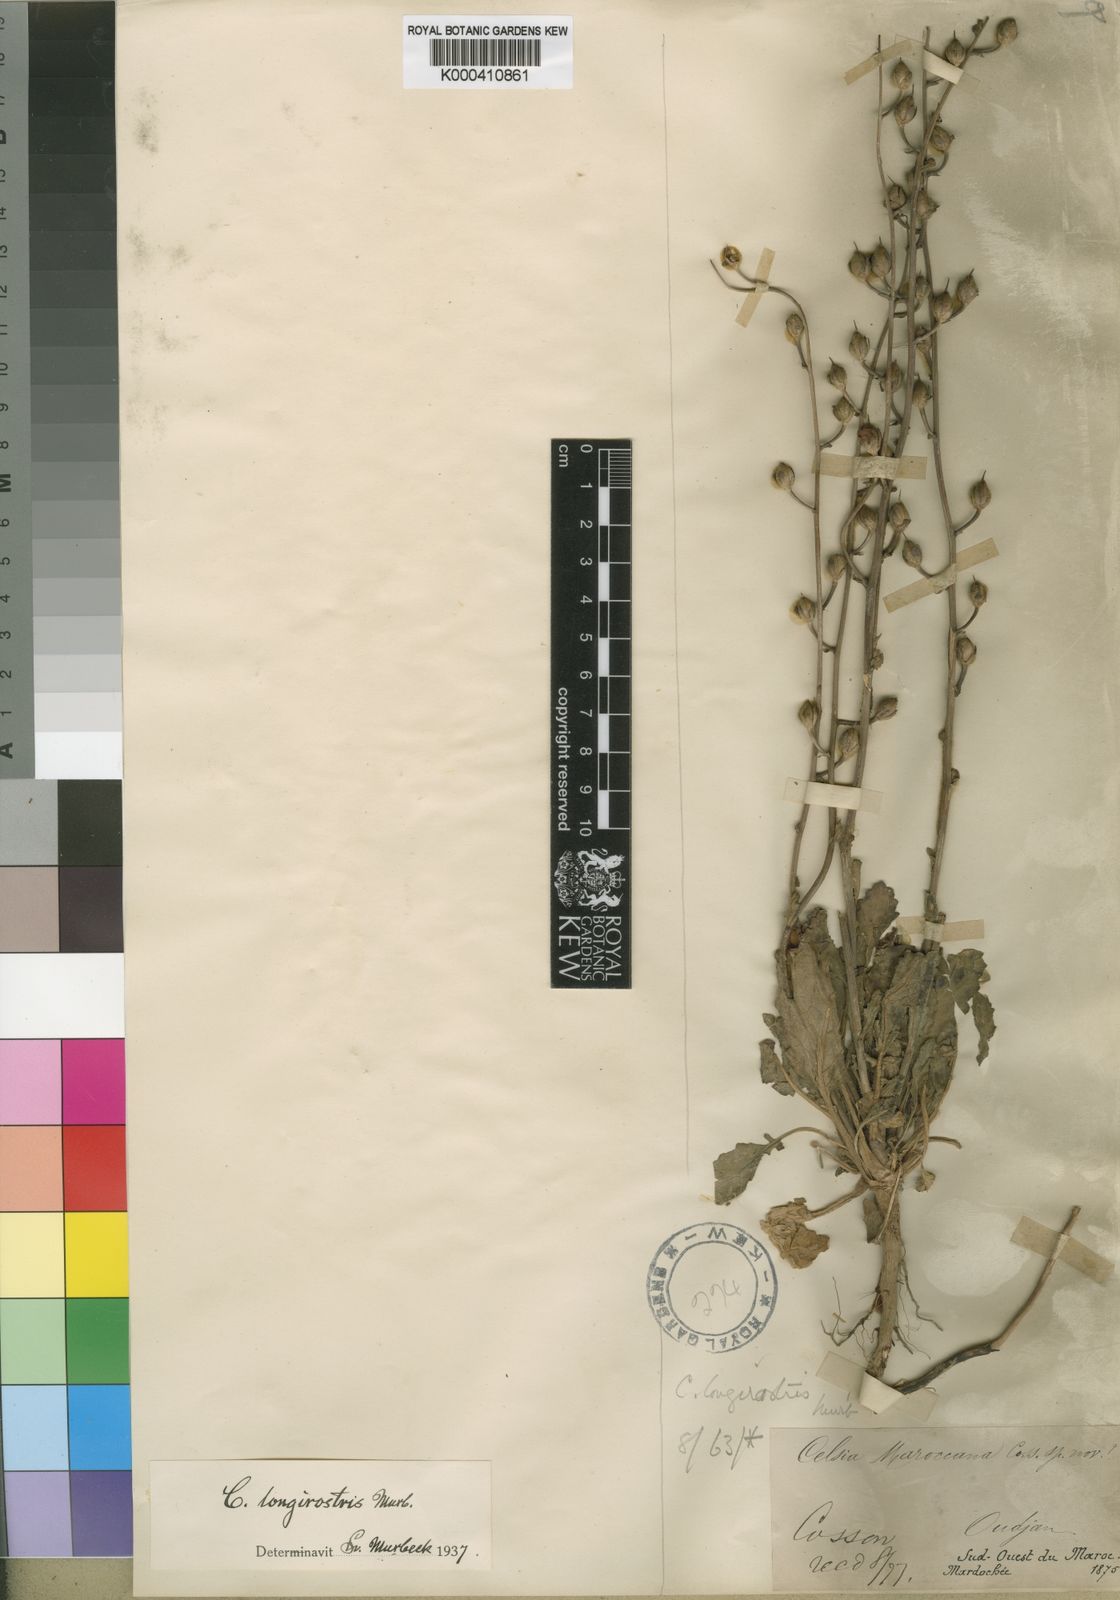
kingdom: Plantae
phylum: Tracheophyta
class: Magnoliopsida
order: Lamiales
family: Scrophulariaceae
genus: Verbascum
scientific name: Verbascum longirostre
